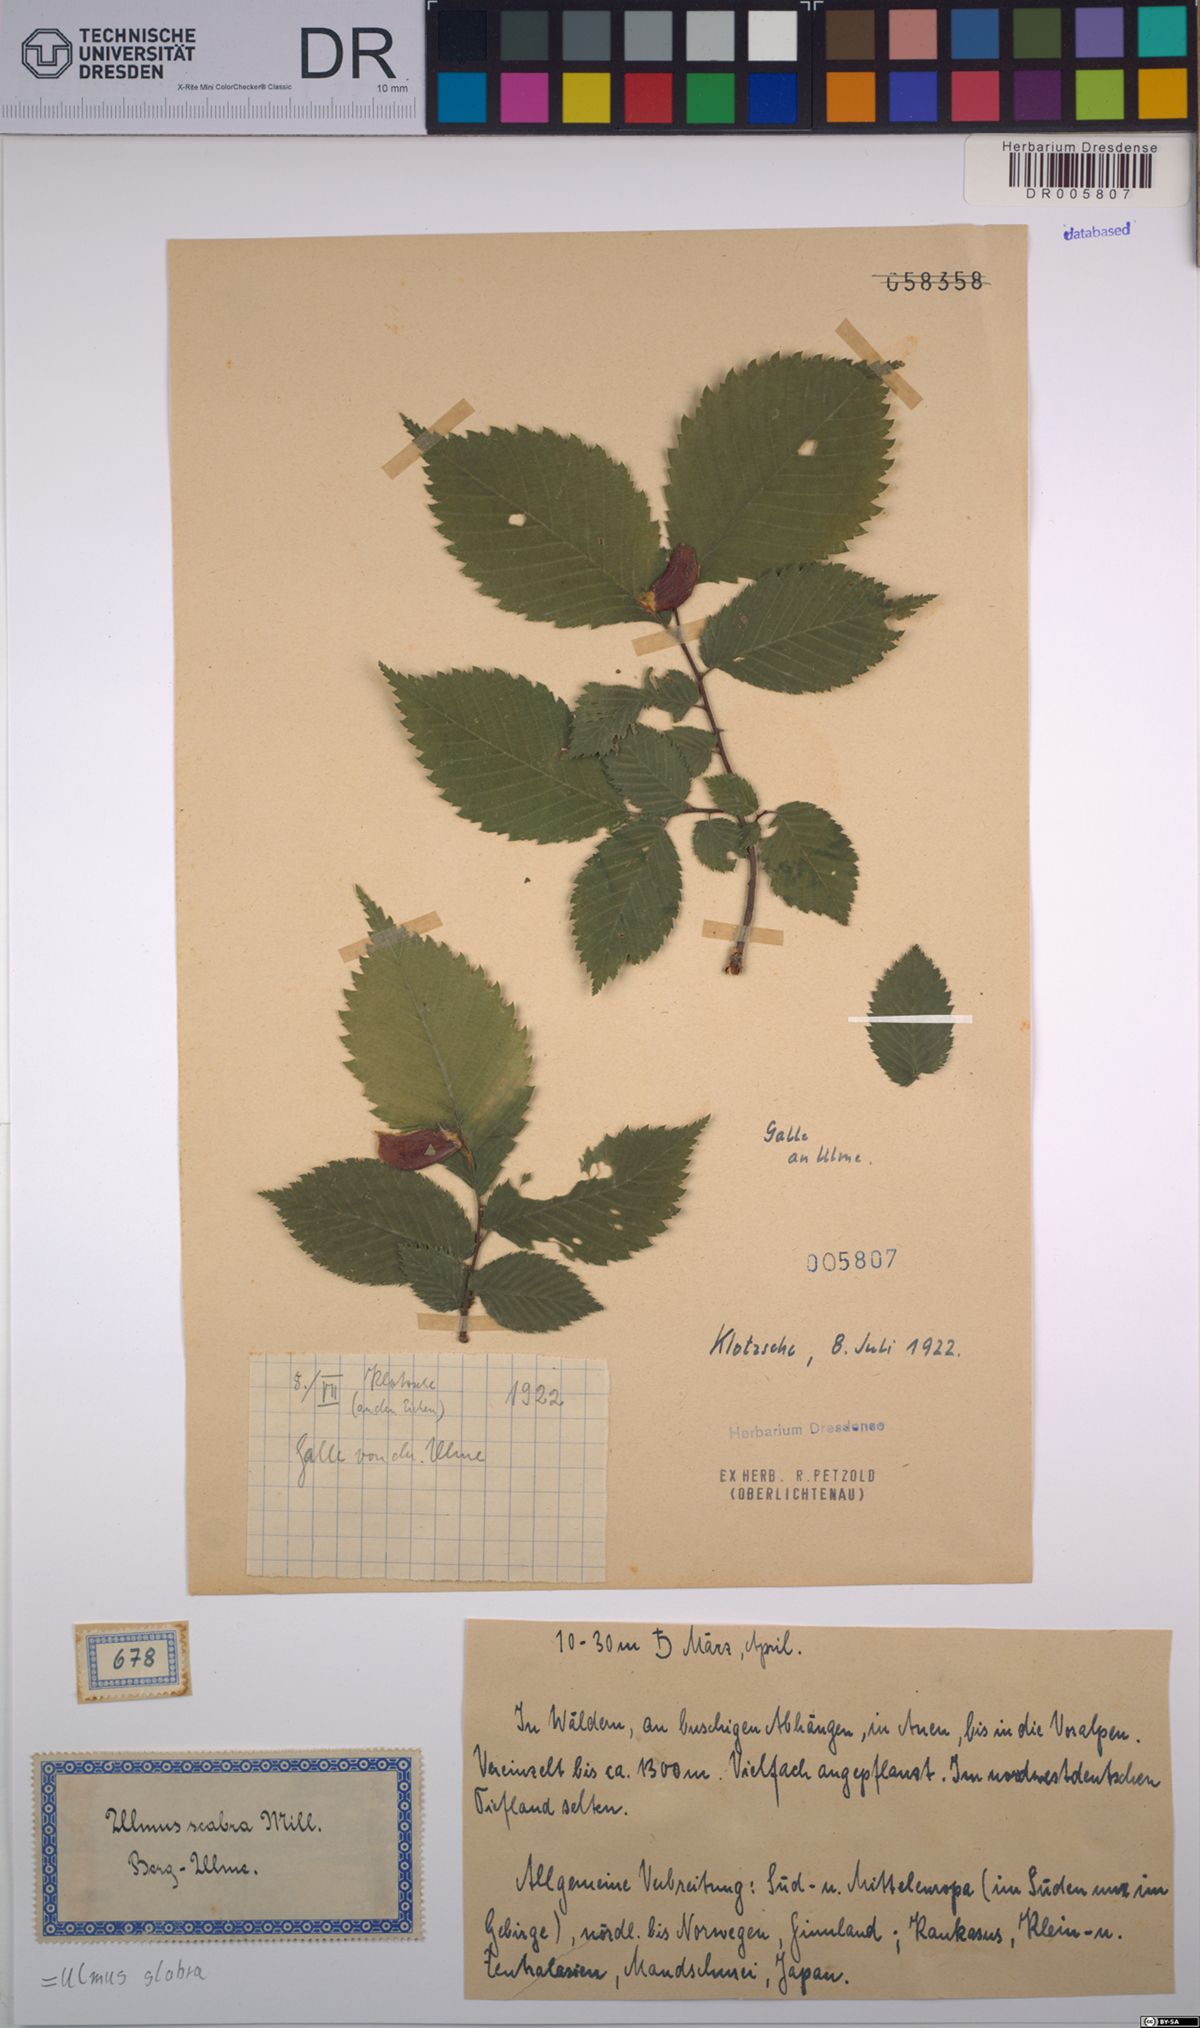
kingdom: Plantae
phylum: Tracheophyta
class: Magnoliopsida
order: Rosales
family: Ulmaceae
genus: Ulmus
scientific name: Ulmus glabra
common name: Wych elm
